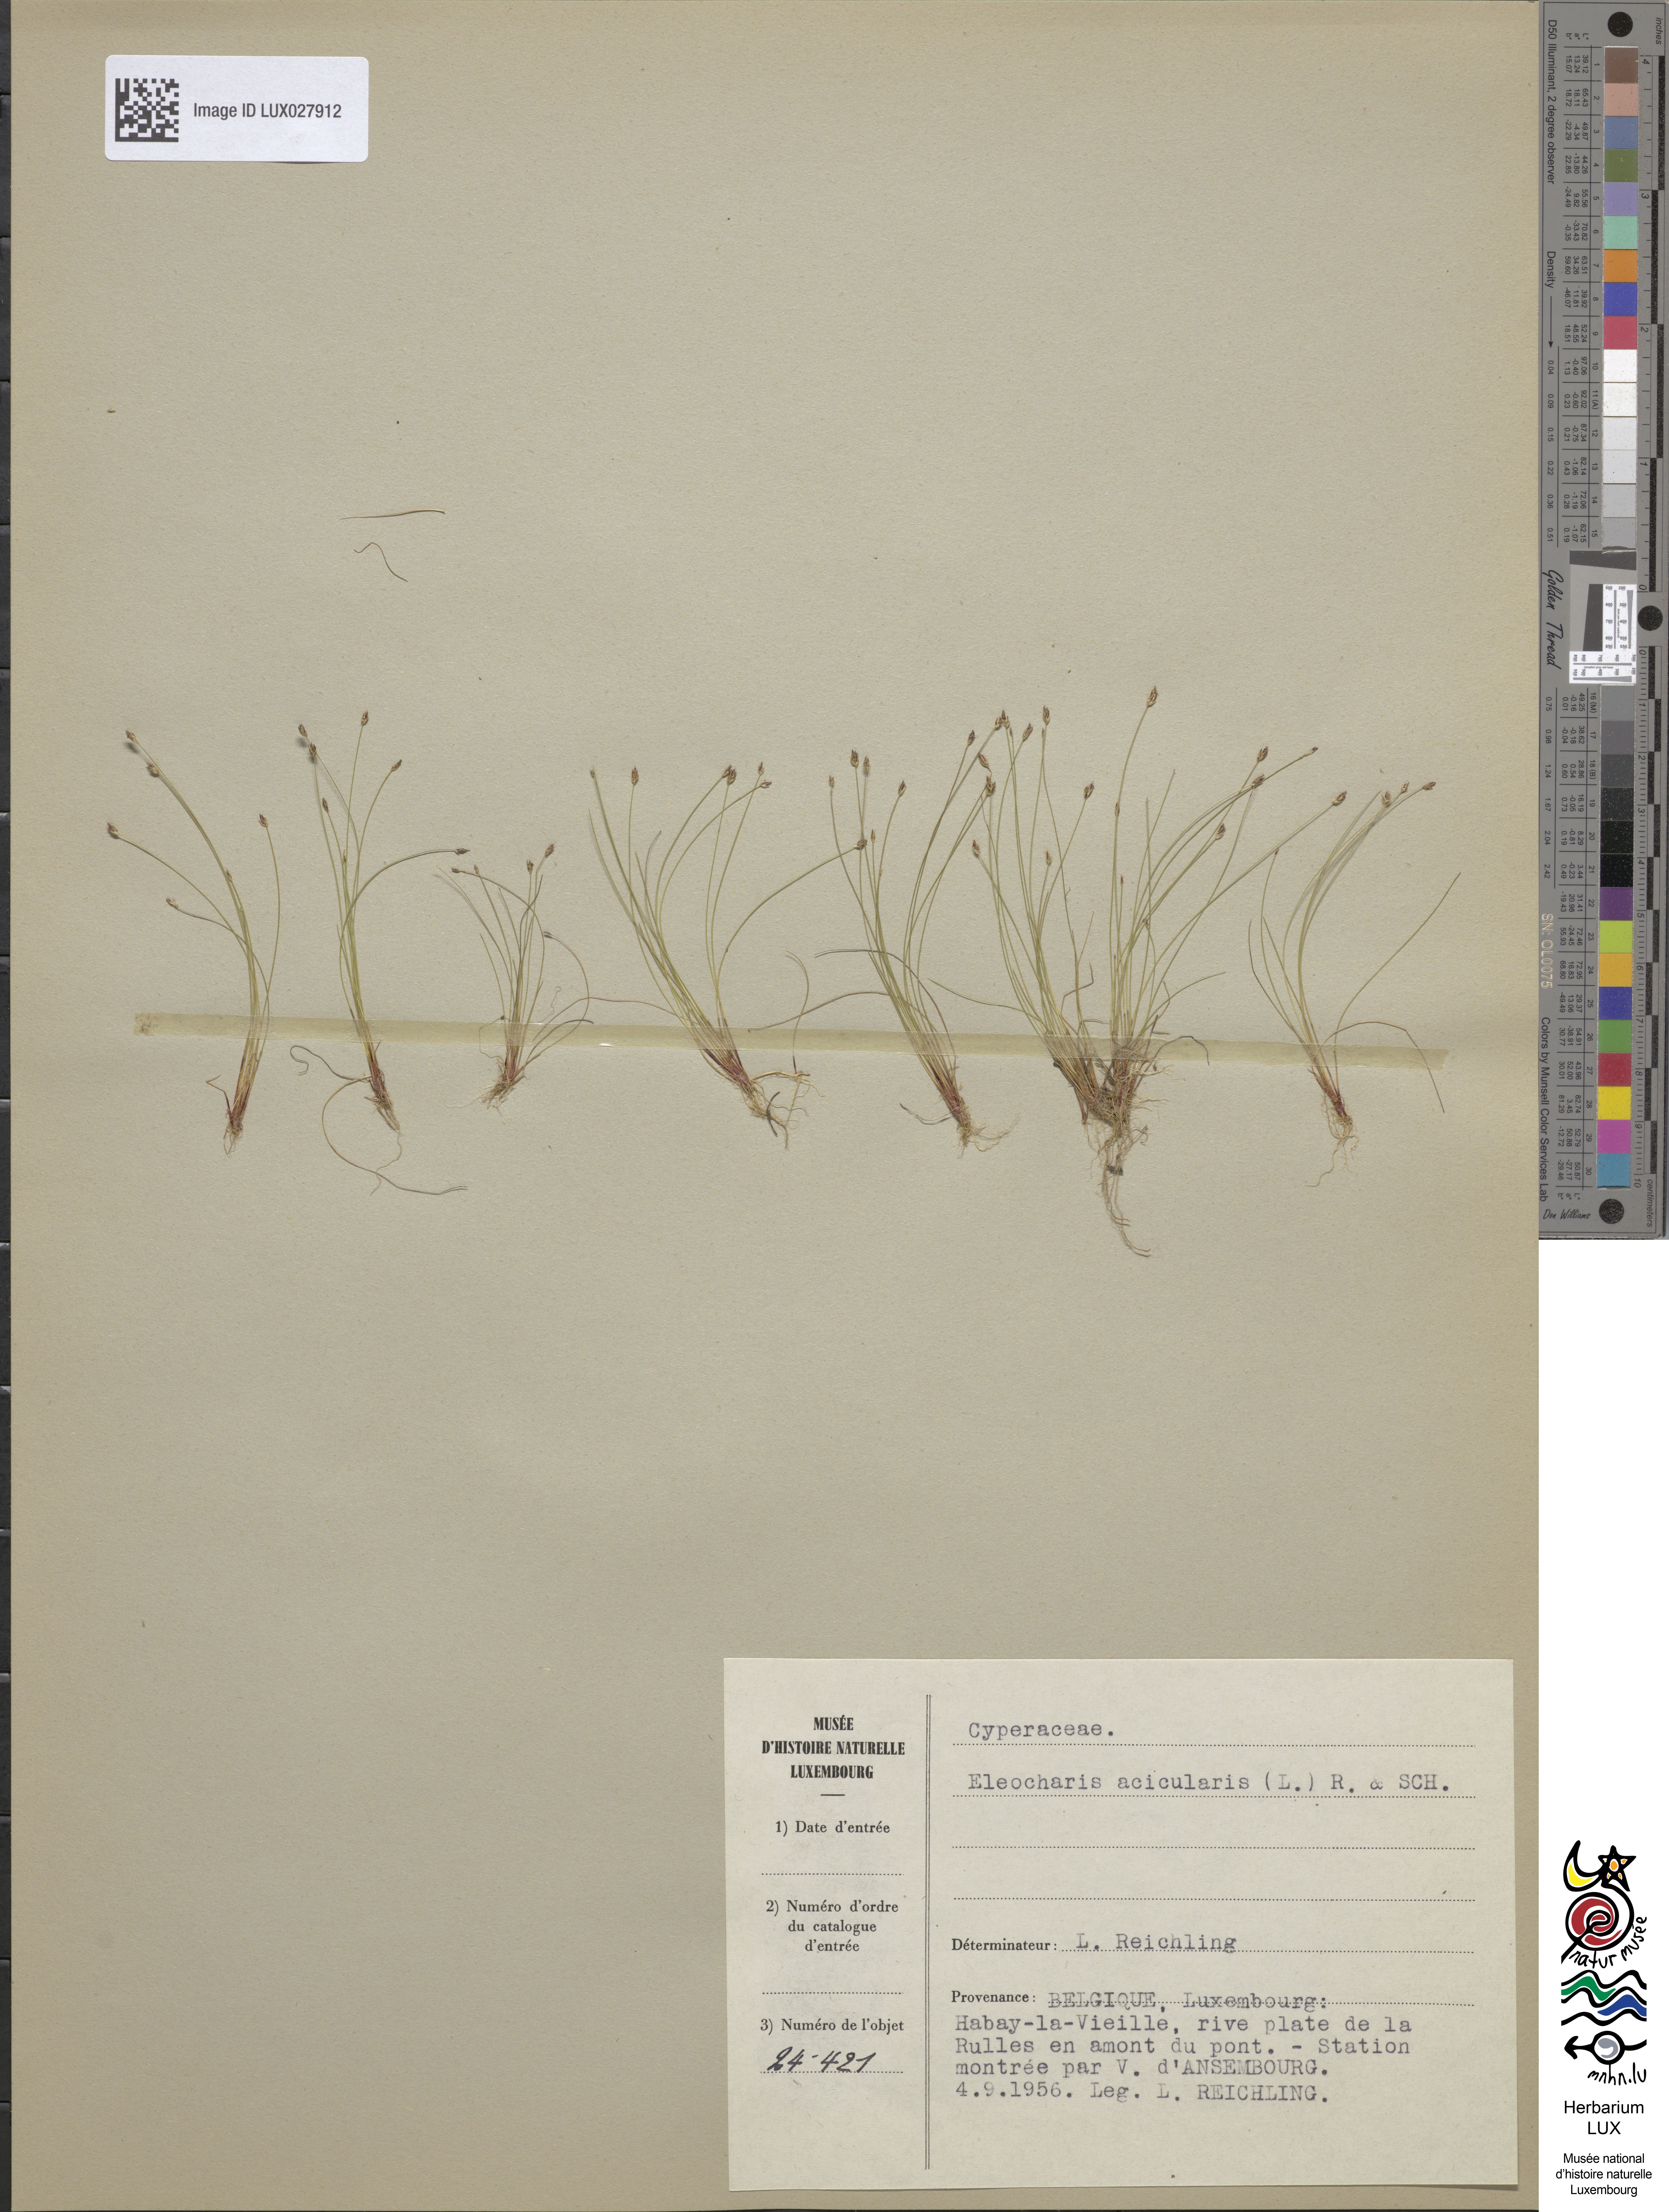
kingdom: Plantae
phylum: Tracheophyta
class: Liliopsida
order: Poales
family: Cyperaceae
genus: Eleocharis
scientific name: Eleocharis acicularis
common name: Needle spike-rush
